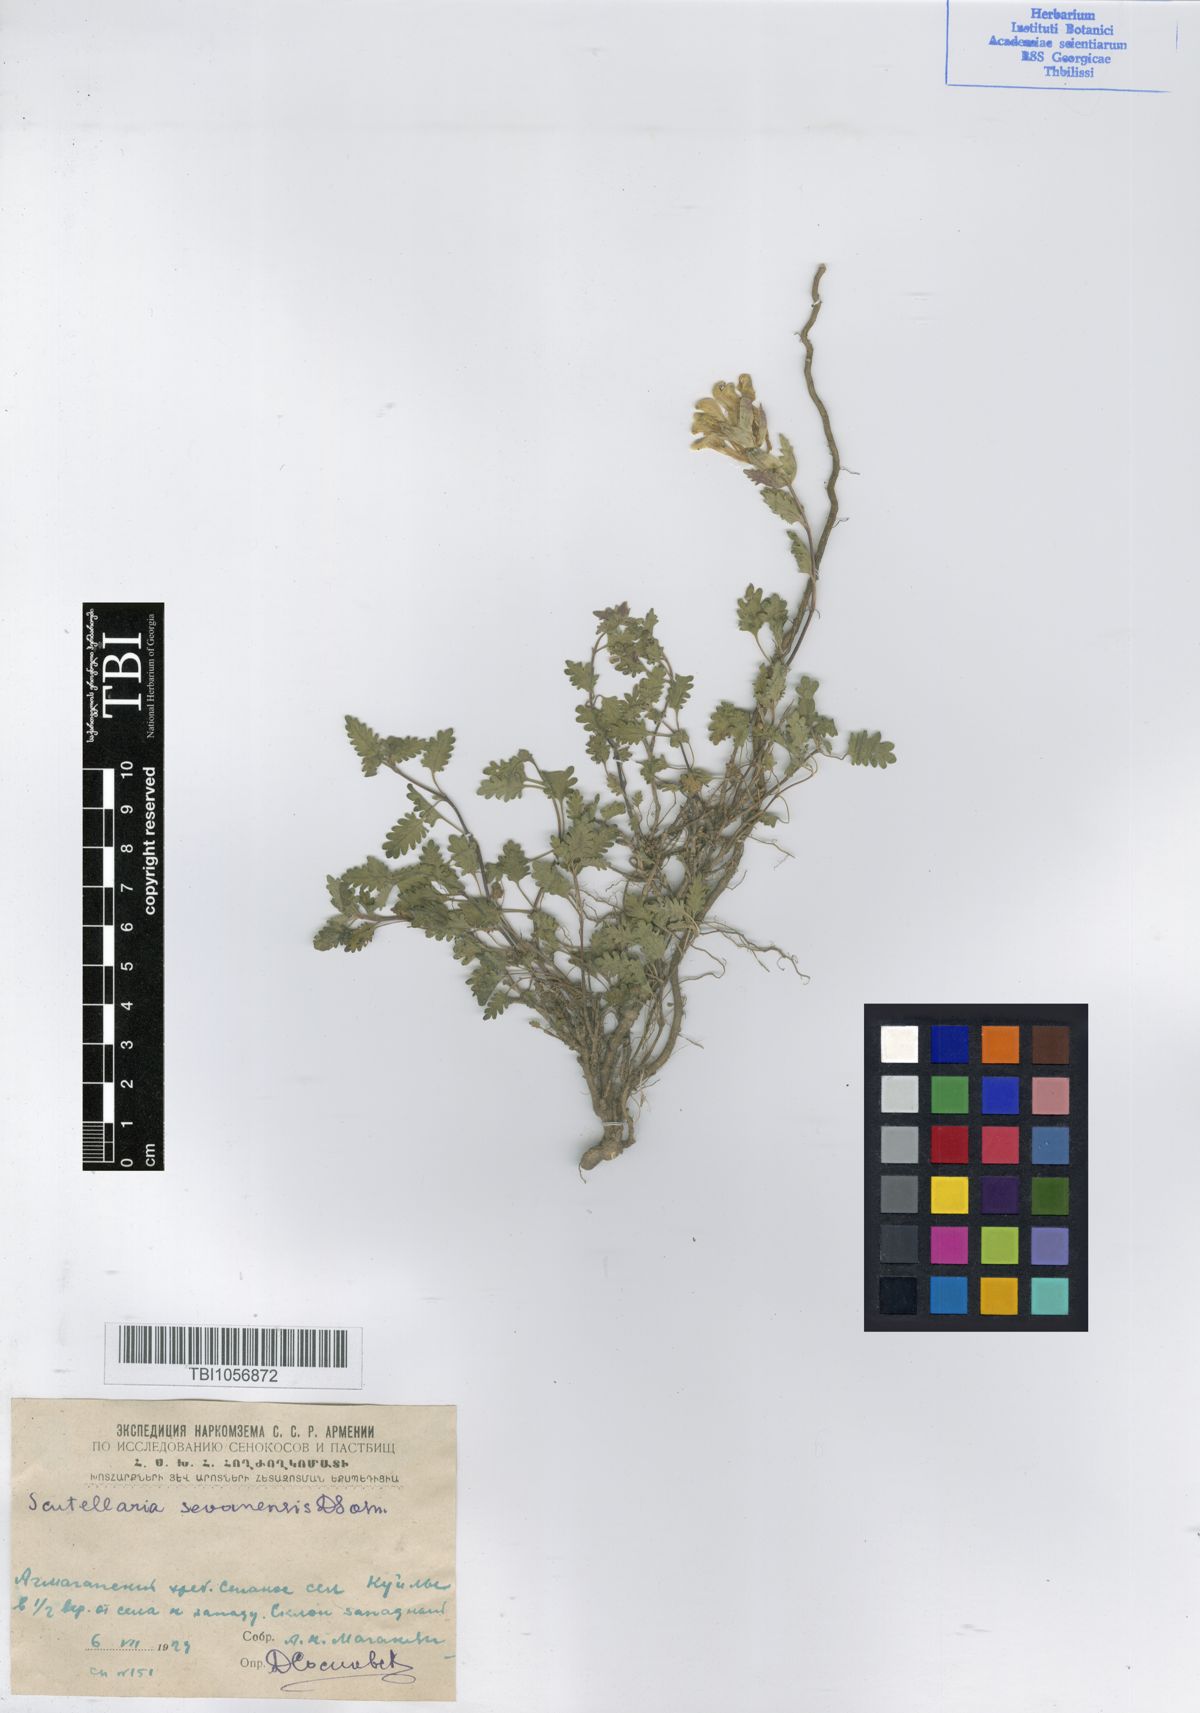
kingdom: Plantae
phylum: Tracheophyta
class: Magnoliopsida
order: Lamiales
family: Lamiaceae
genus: Scutellaria
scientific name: Scutellaria sevanensis
